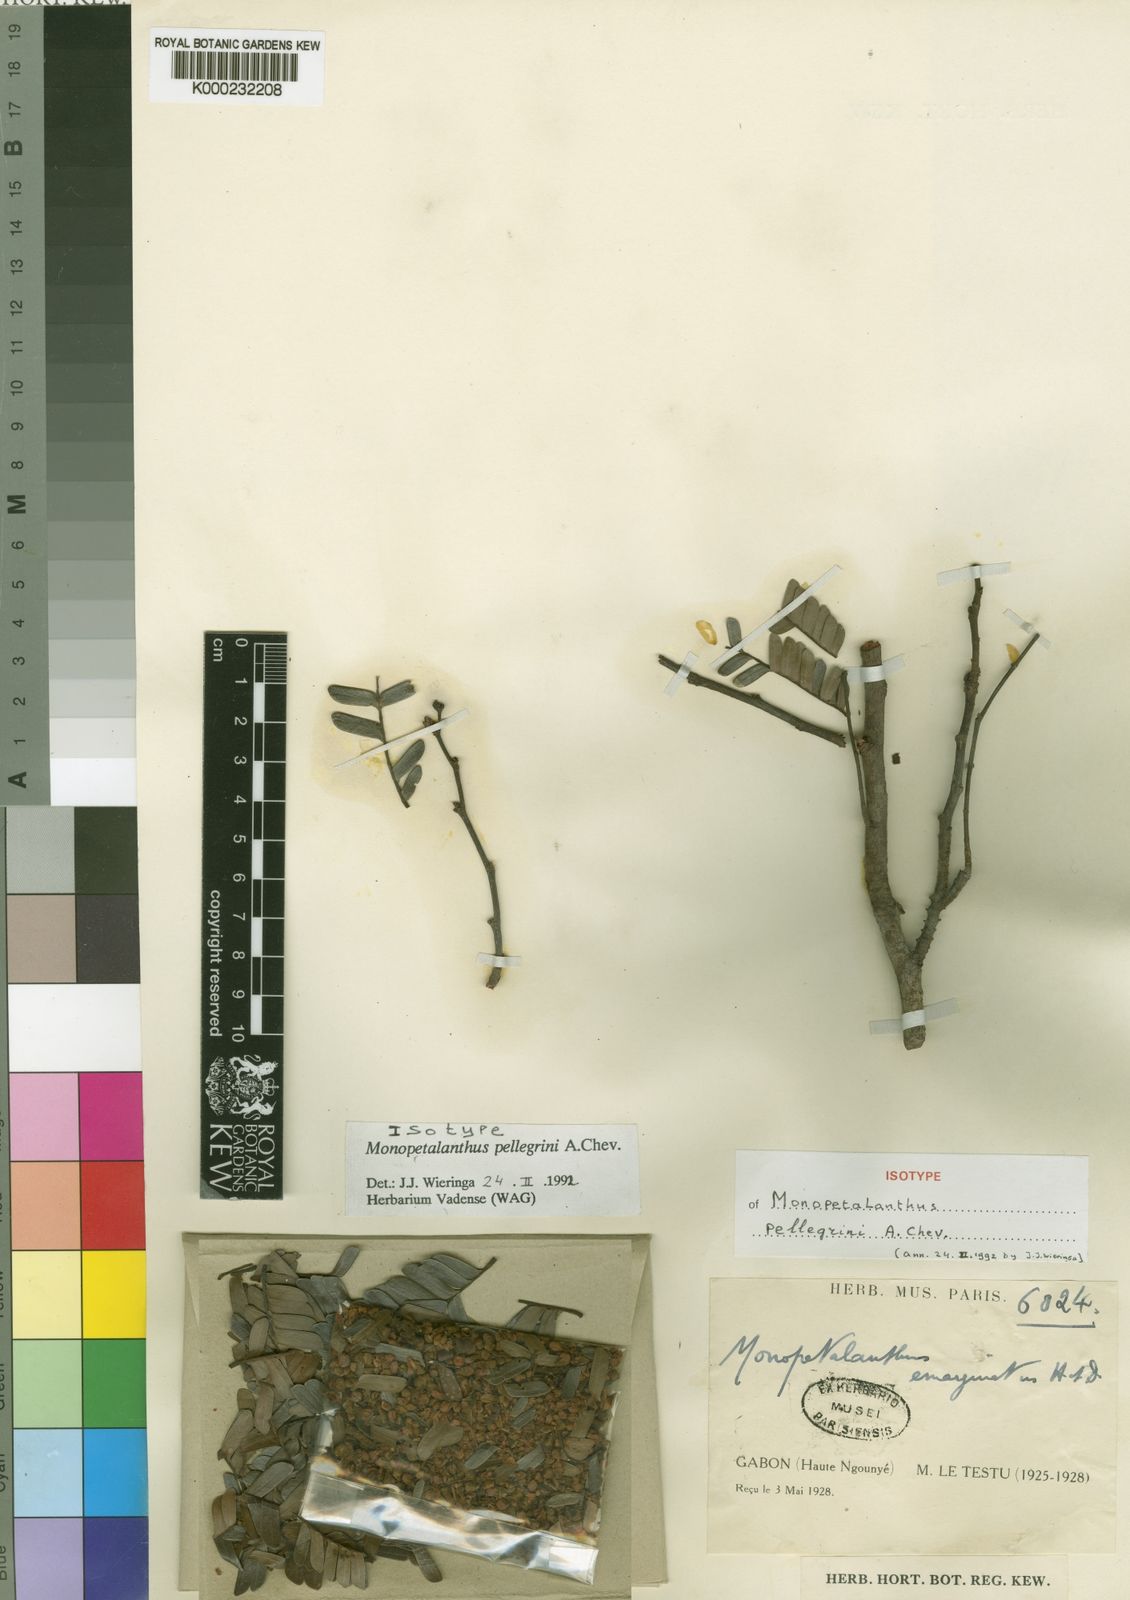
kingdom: Plantae
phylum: Tracheophyta
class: Magnoliopsida
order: Fabales
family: Fabaceae
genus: Bikinia
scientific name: Bikinia pellegrinii
